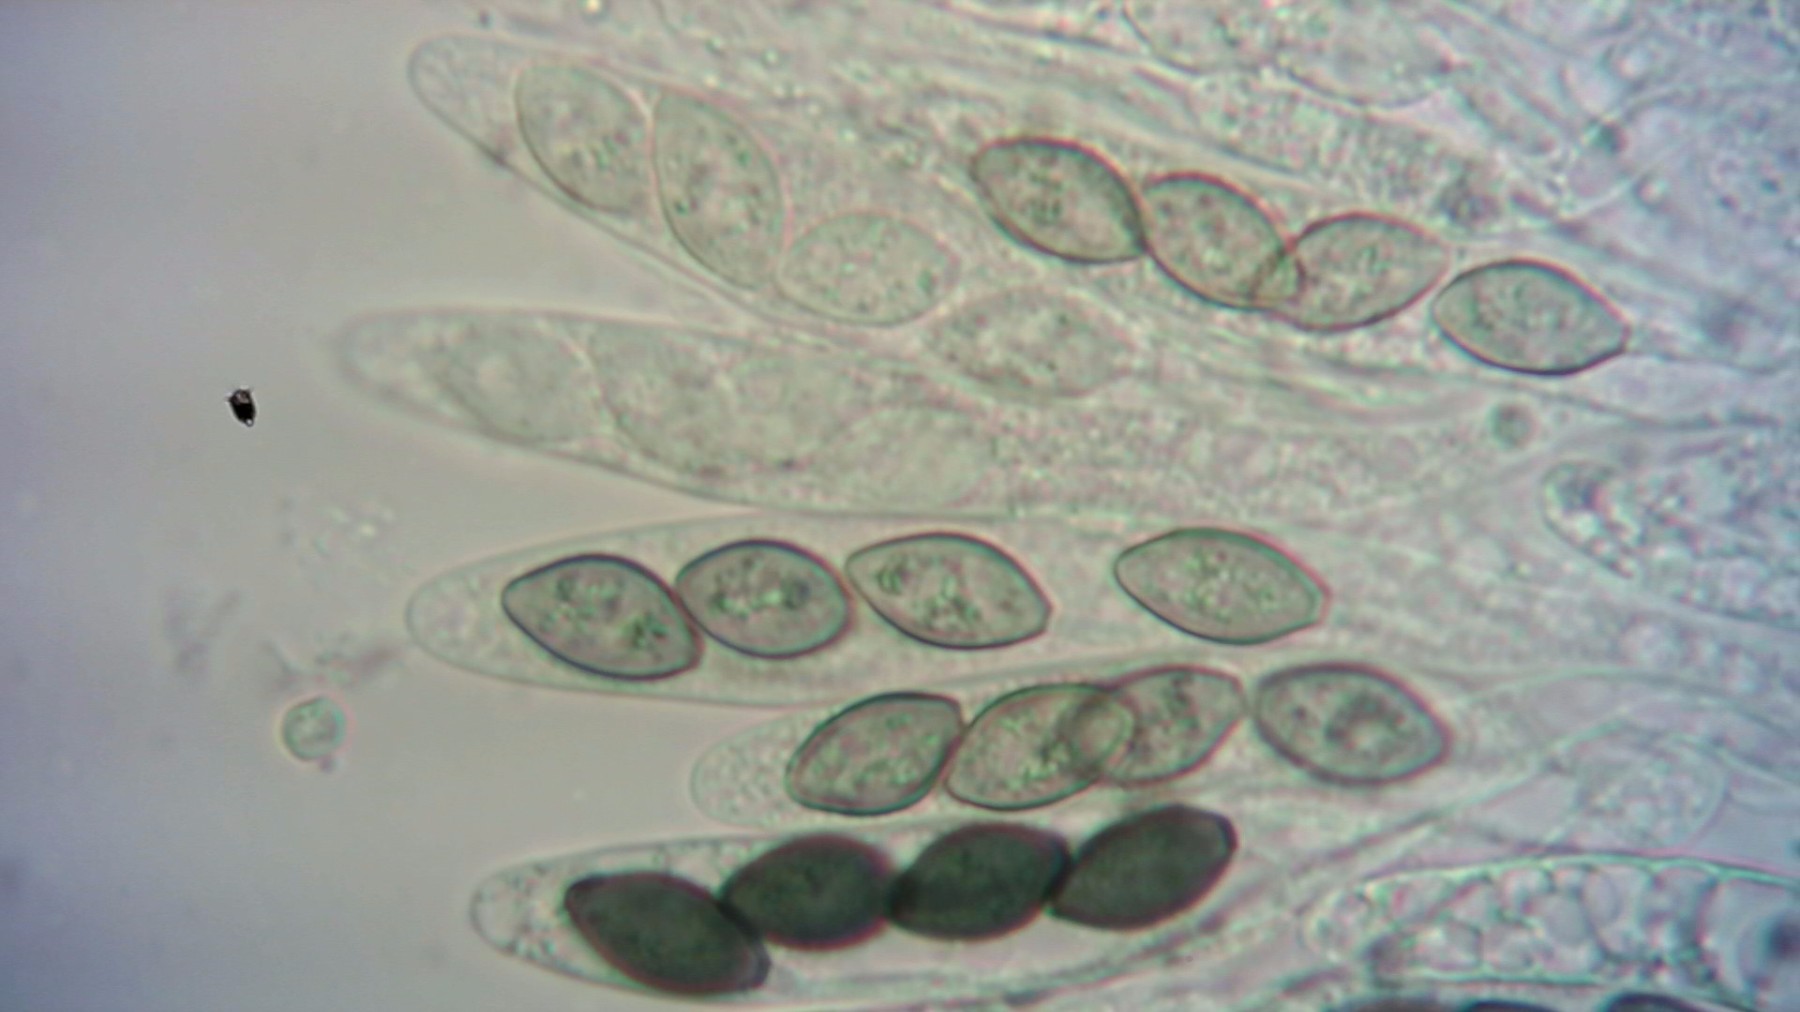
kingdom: Fungi
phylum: Ascomycota
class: Sordariomycetes
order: Sordariales
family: Neoschizotheciaceae
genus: Neoschizothecium
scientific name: Neoschizothecium tetrasporum
